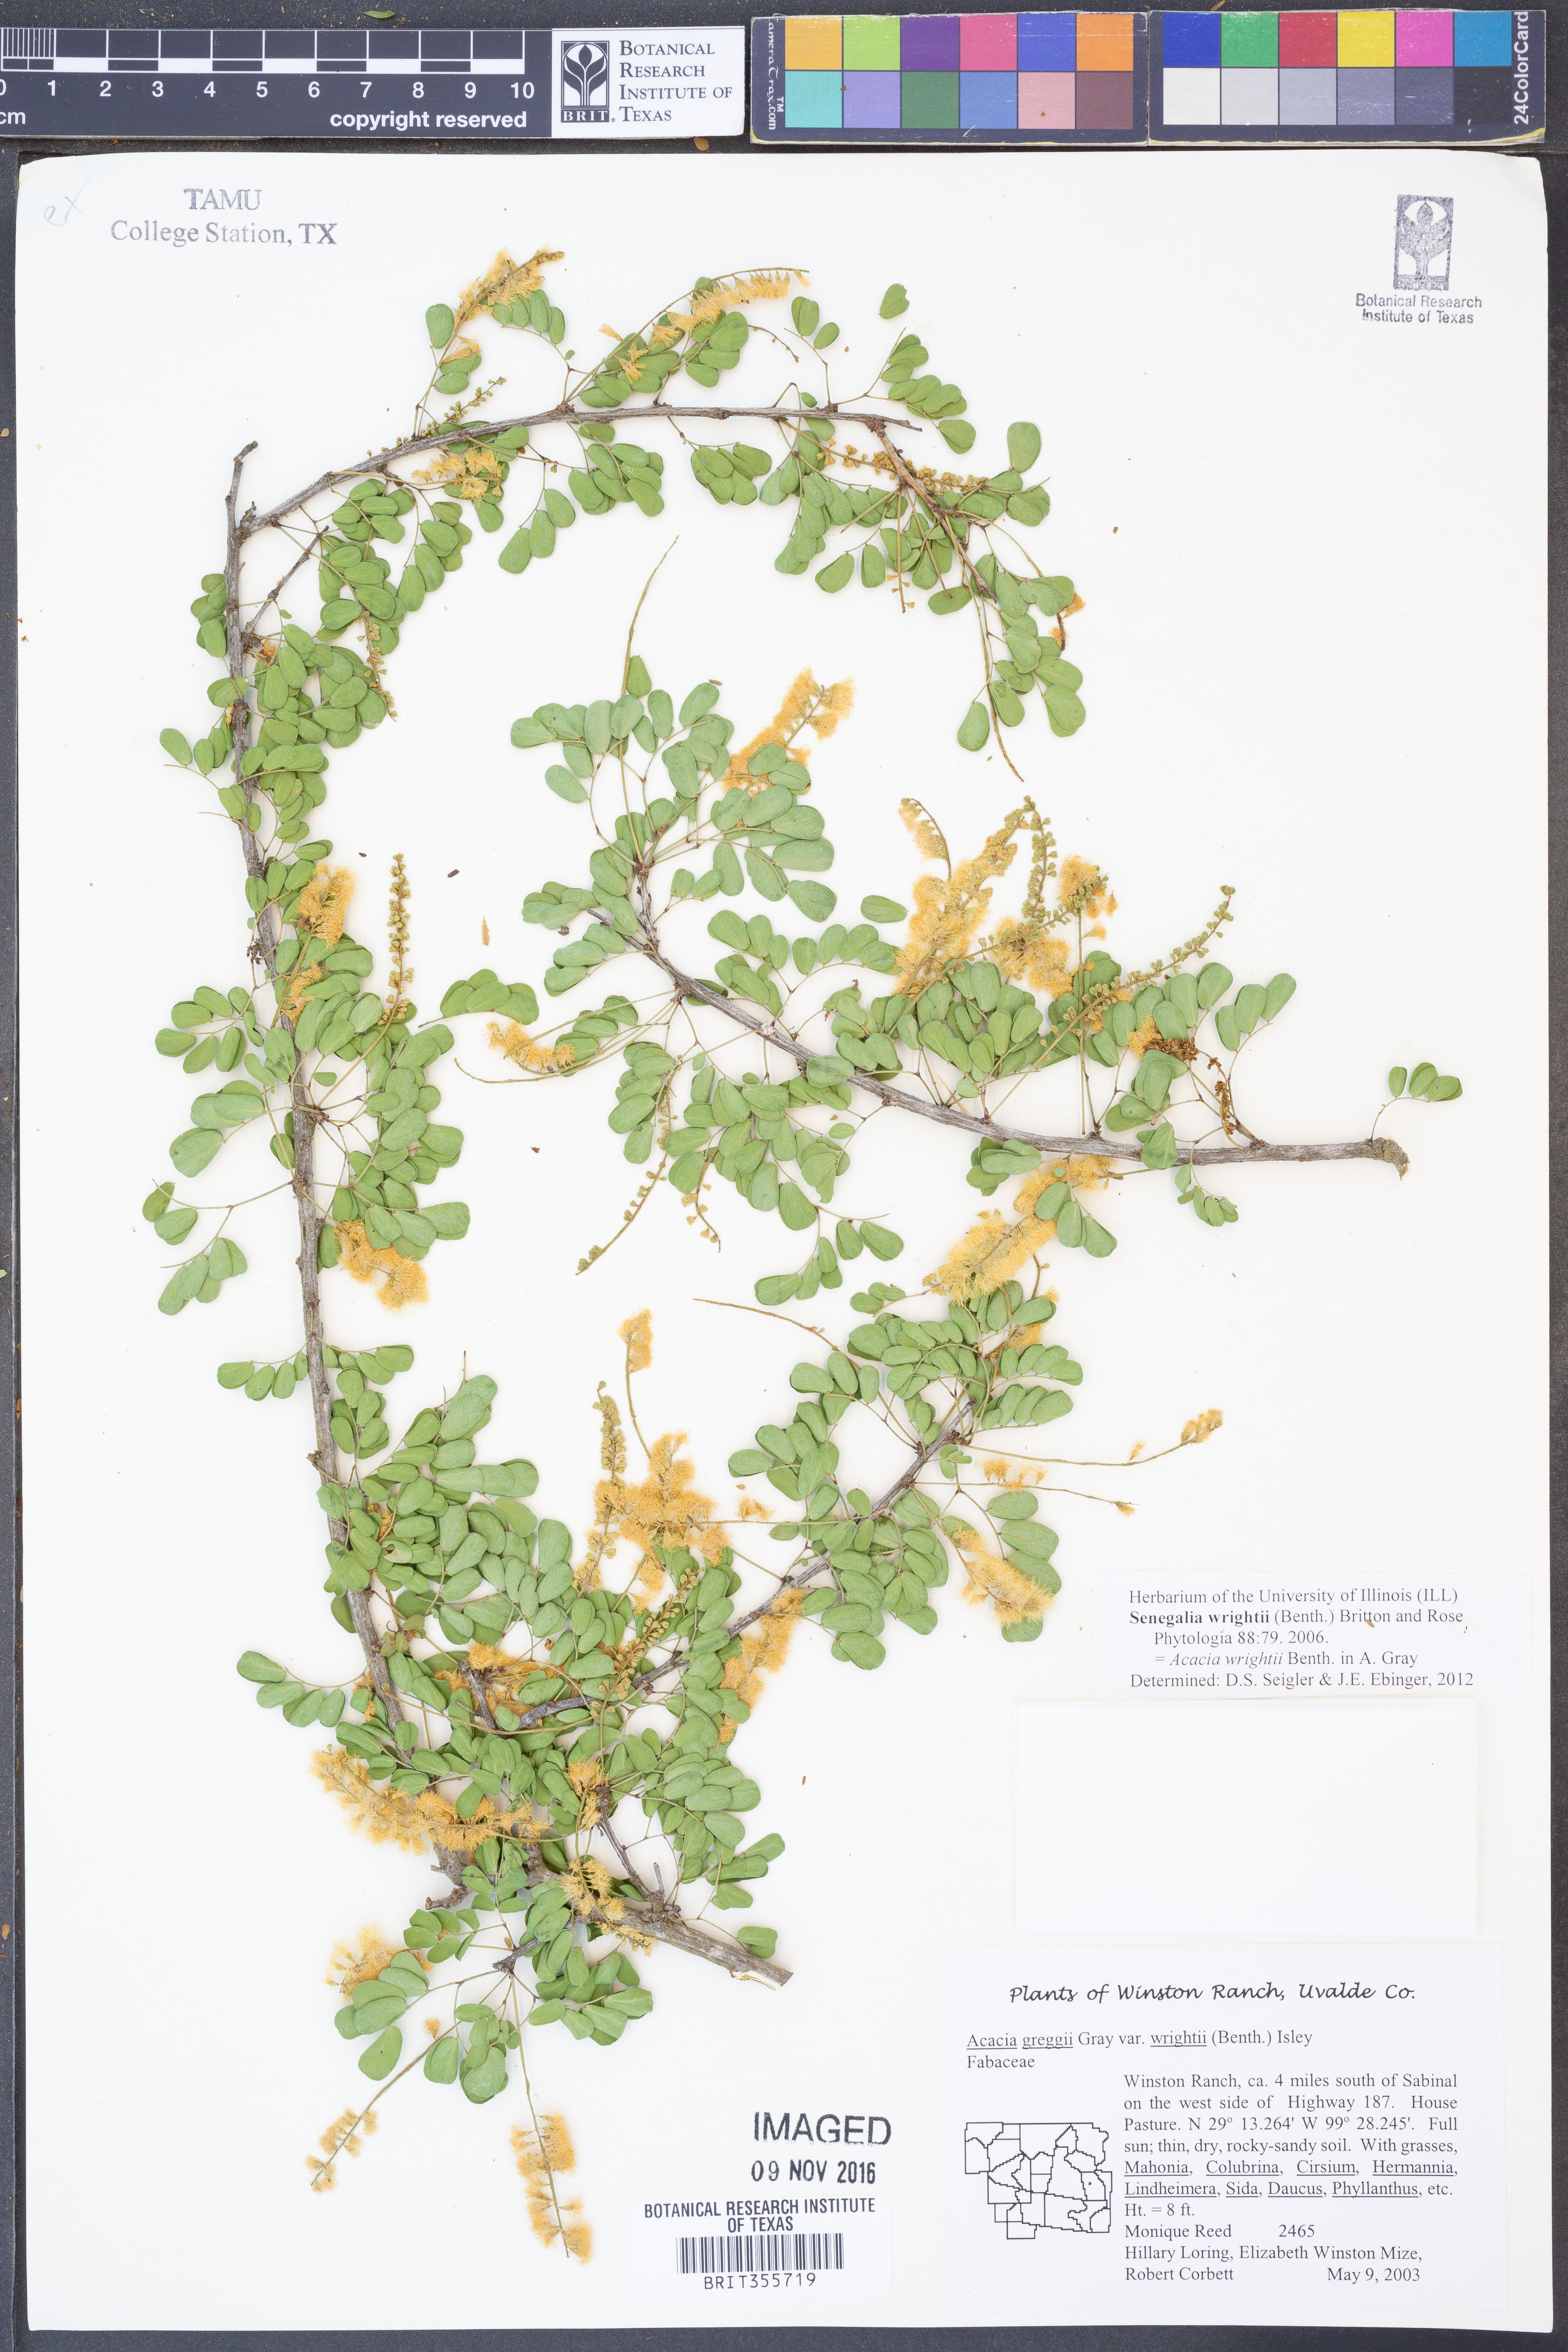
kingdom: Plantae
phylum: Tracheophyta
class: Magnoliopsida
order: Fabales
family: Fabaceae
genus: Senegalia
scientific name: Senegalia wrightii
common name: Texas cat's-claw
